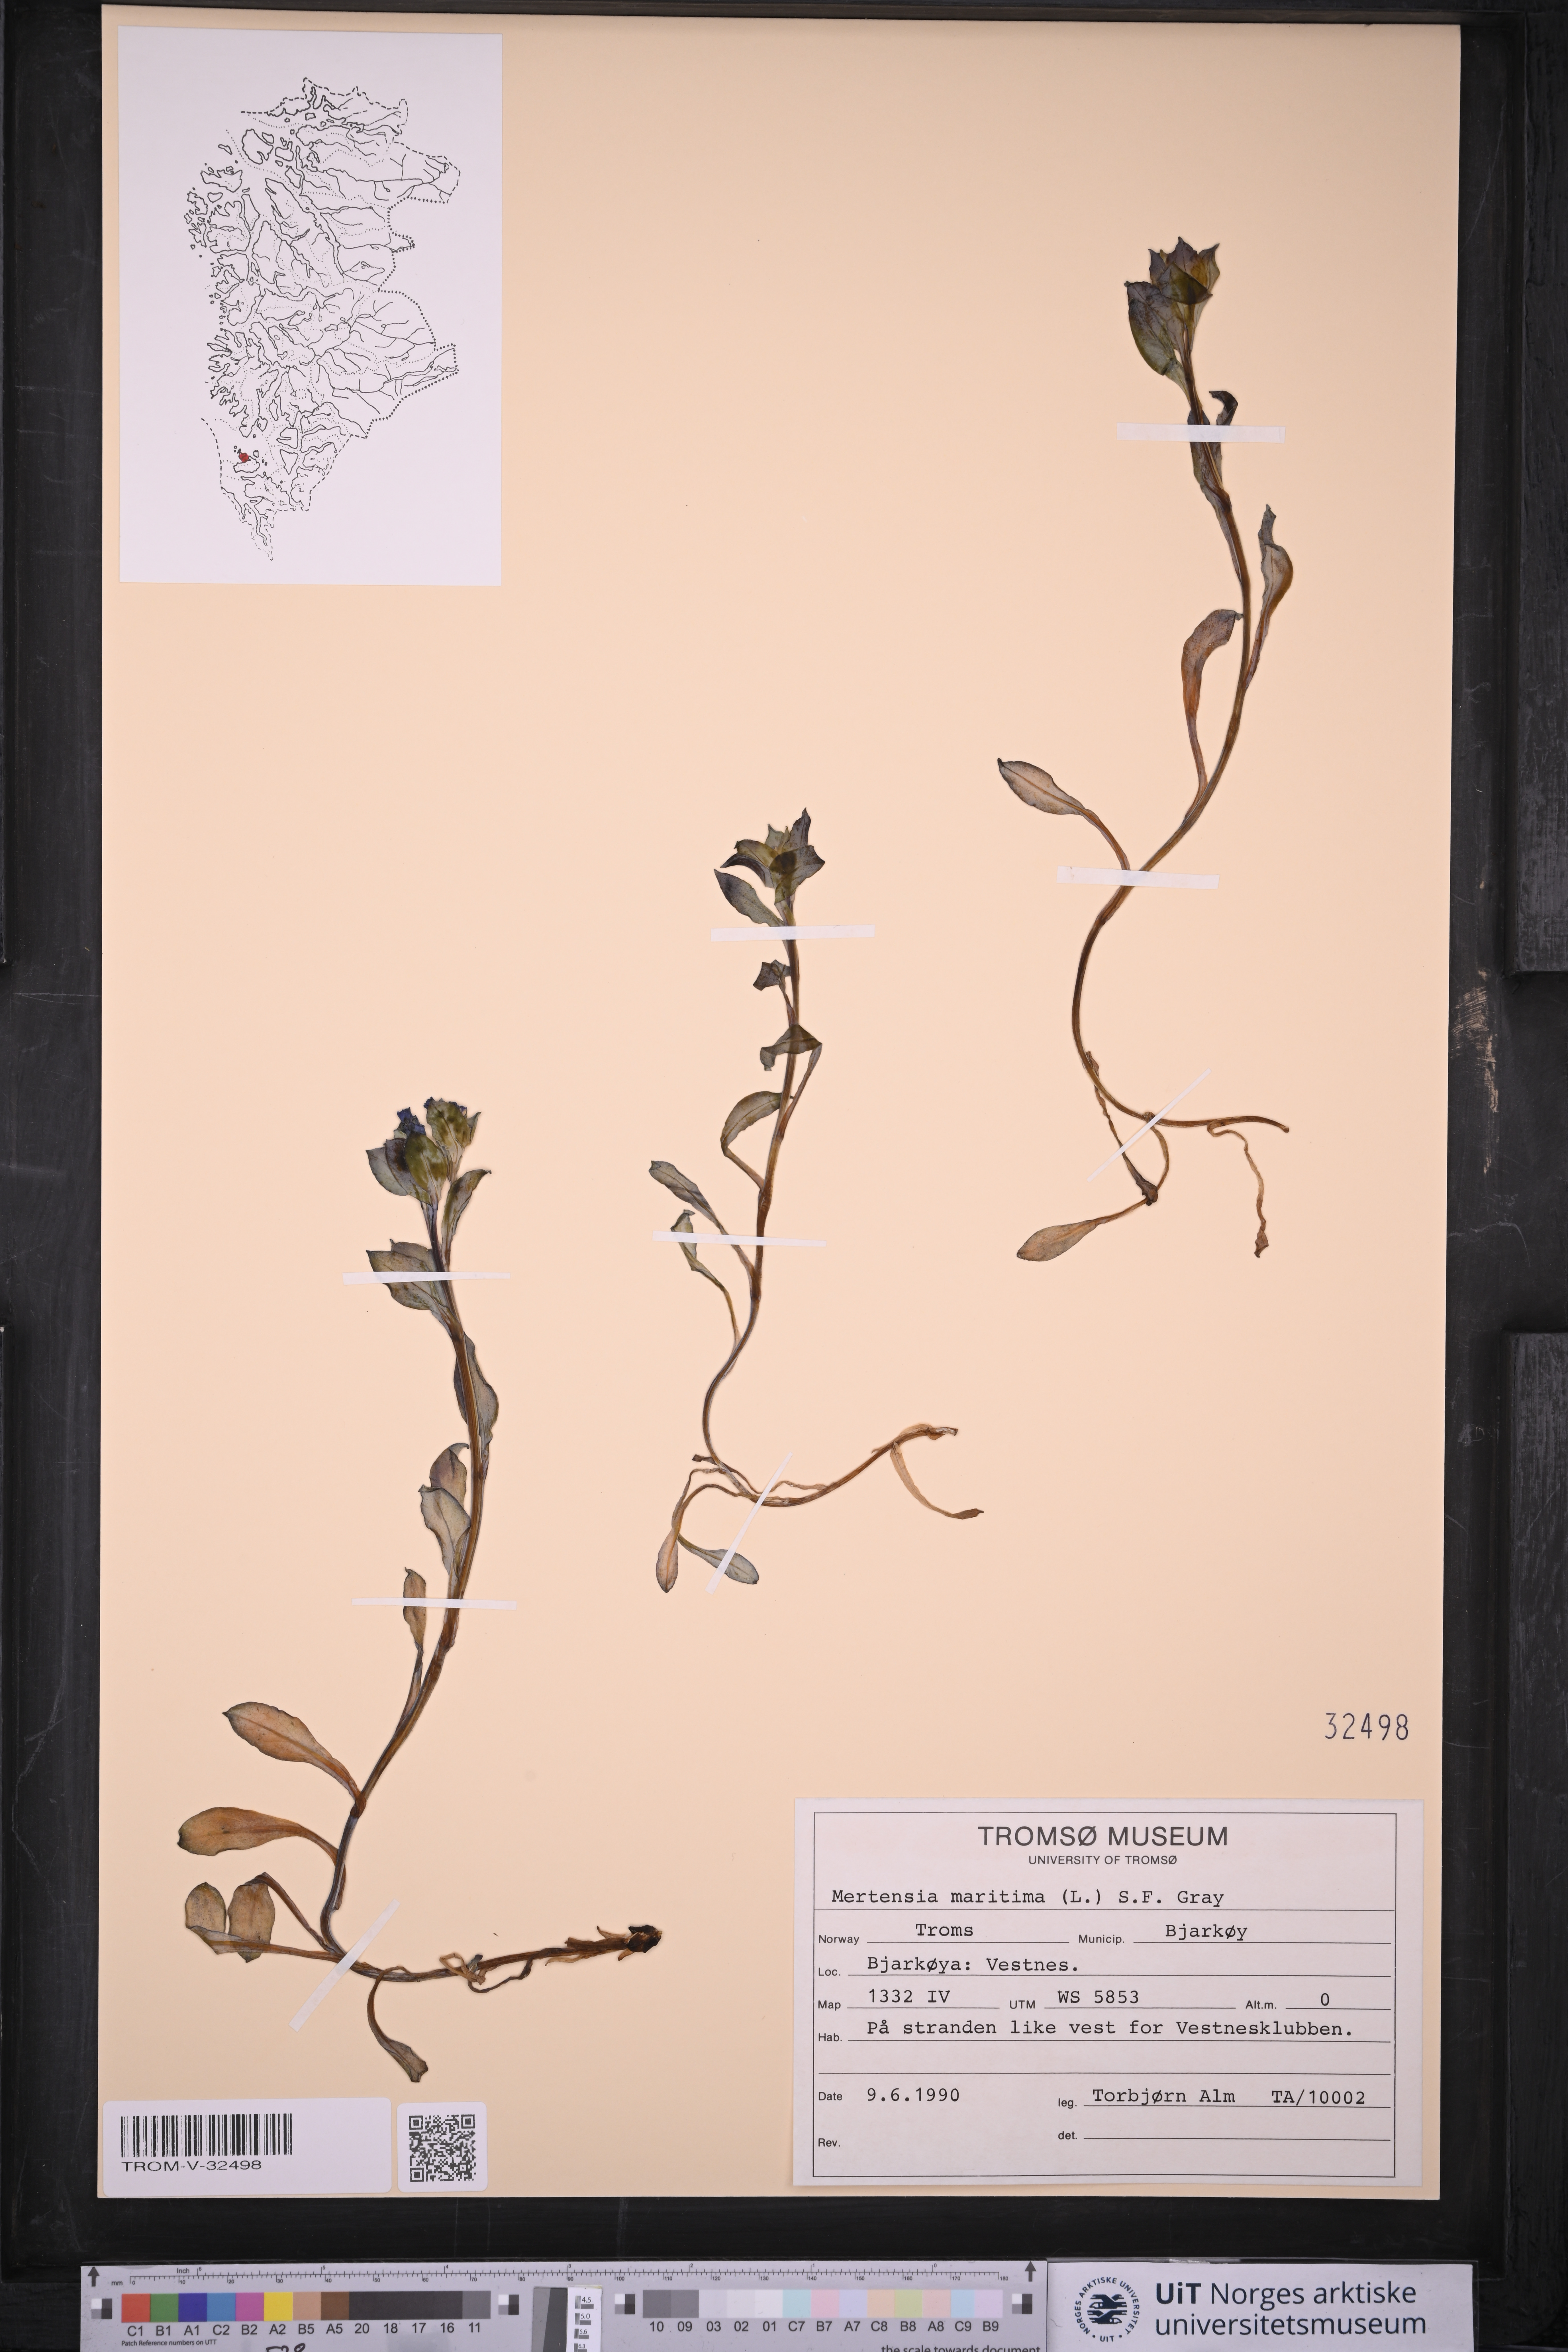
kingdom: Plantae
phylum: Tracheophyta
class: Magnoliopsida
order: Boraginales
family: Boraginaceae
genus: Mertensia
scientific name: Mertensia maritima
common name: Oysterplant
